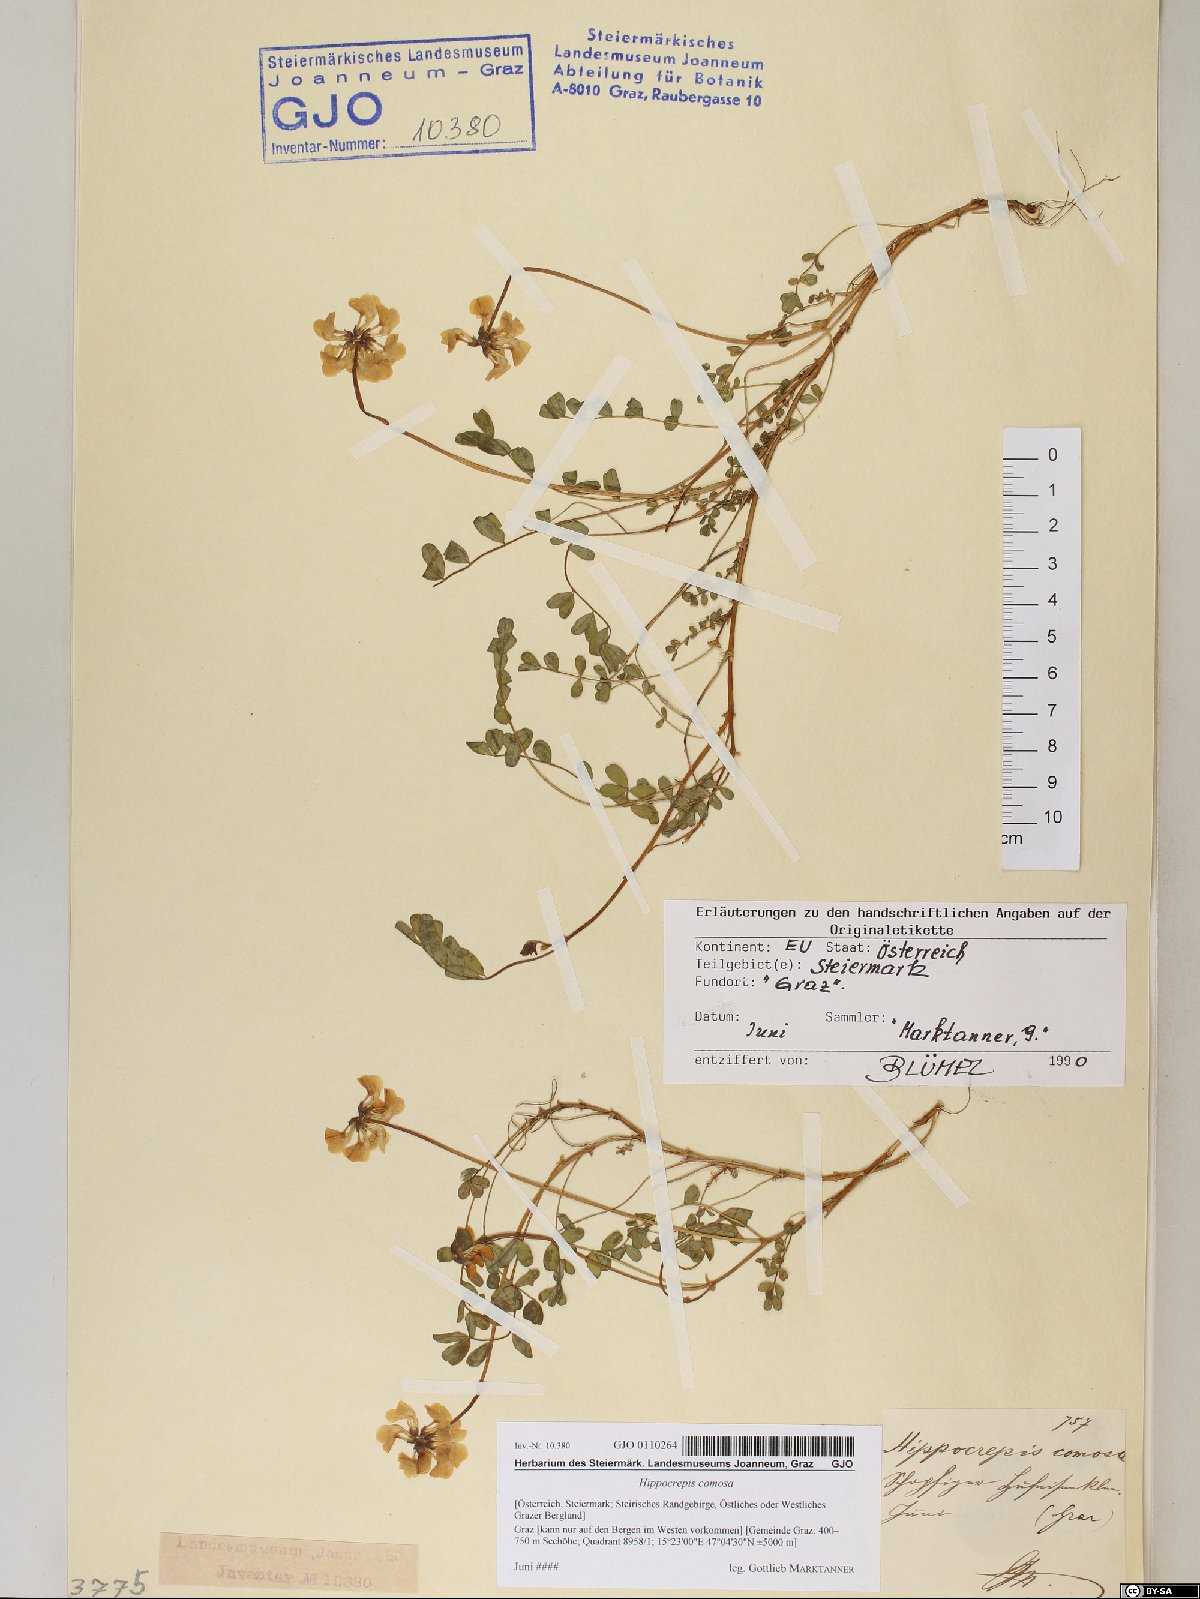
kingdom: Plantae
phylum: Tracheophyta
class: Magnoliopsida
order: Fabales
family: Fabaceae
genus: Hippocrepis
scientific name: Hippocrepis comosa
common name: Horseshoe vetch
